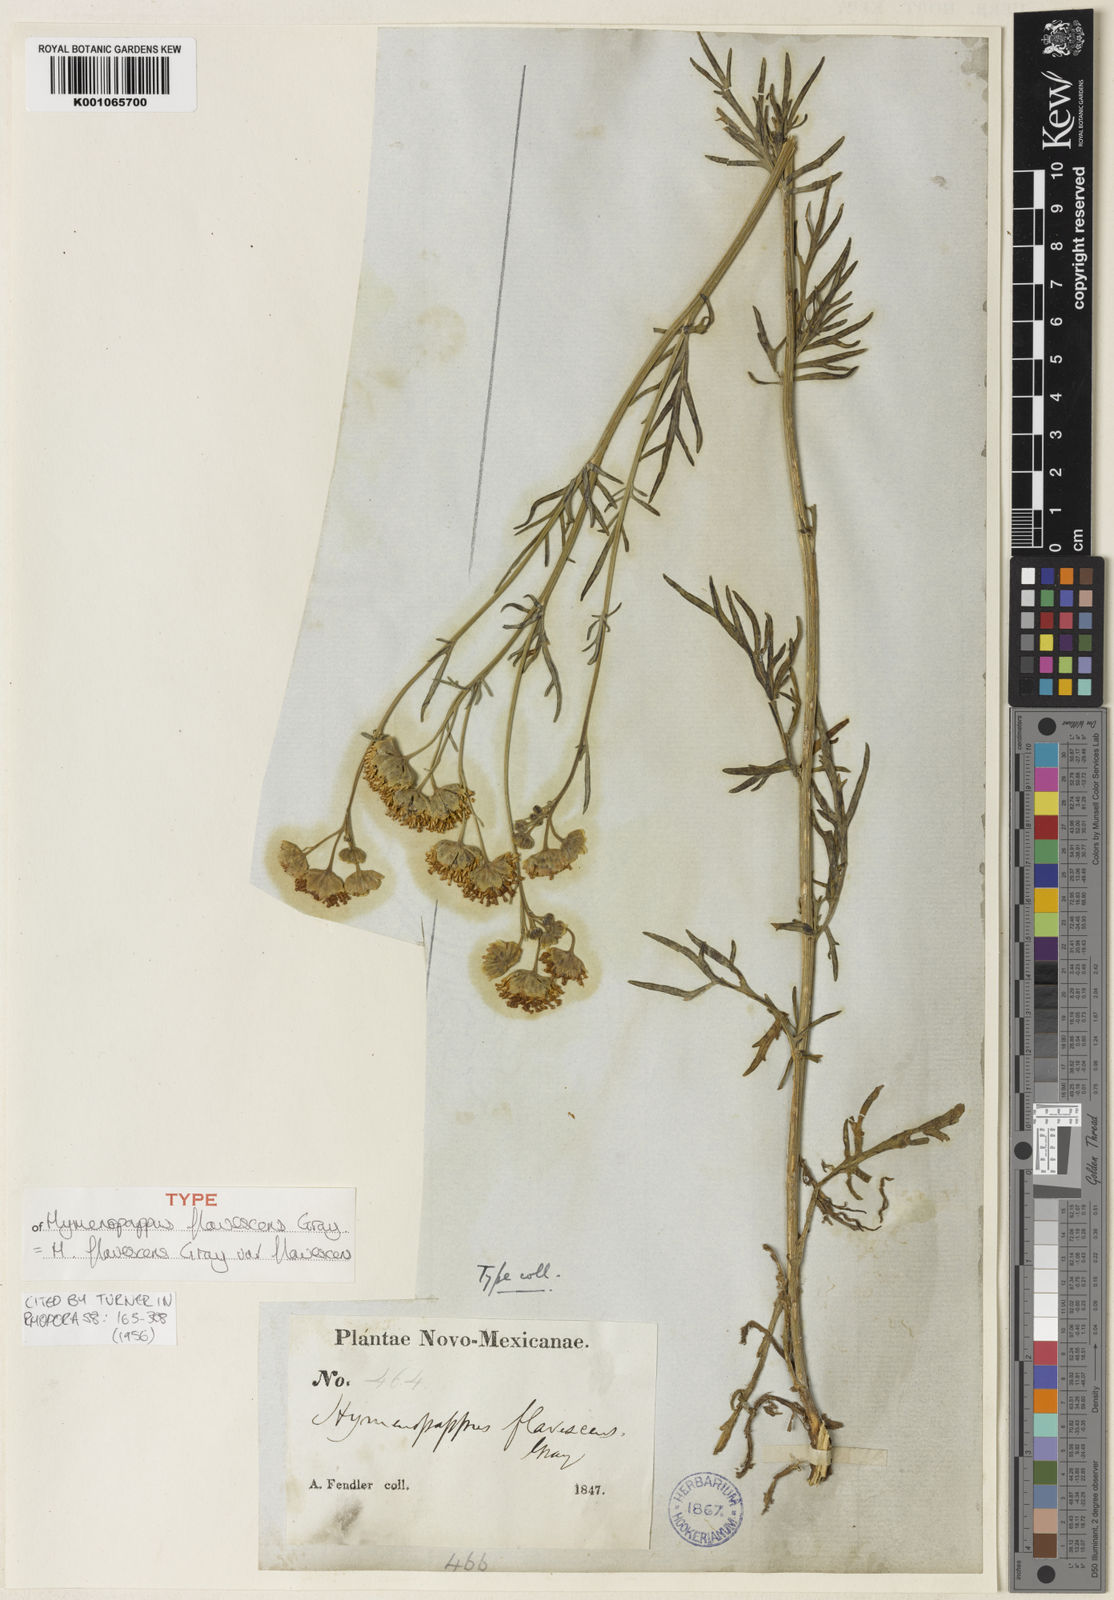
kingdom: Plantae
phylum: Tracheophyta
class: Magnoliopsida
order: Asterales
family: Asteraceae
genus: Hymenopappus
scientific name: Hymenopappus flavescens
